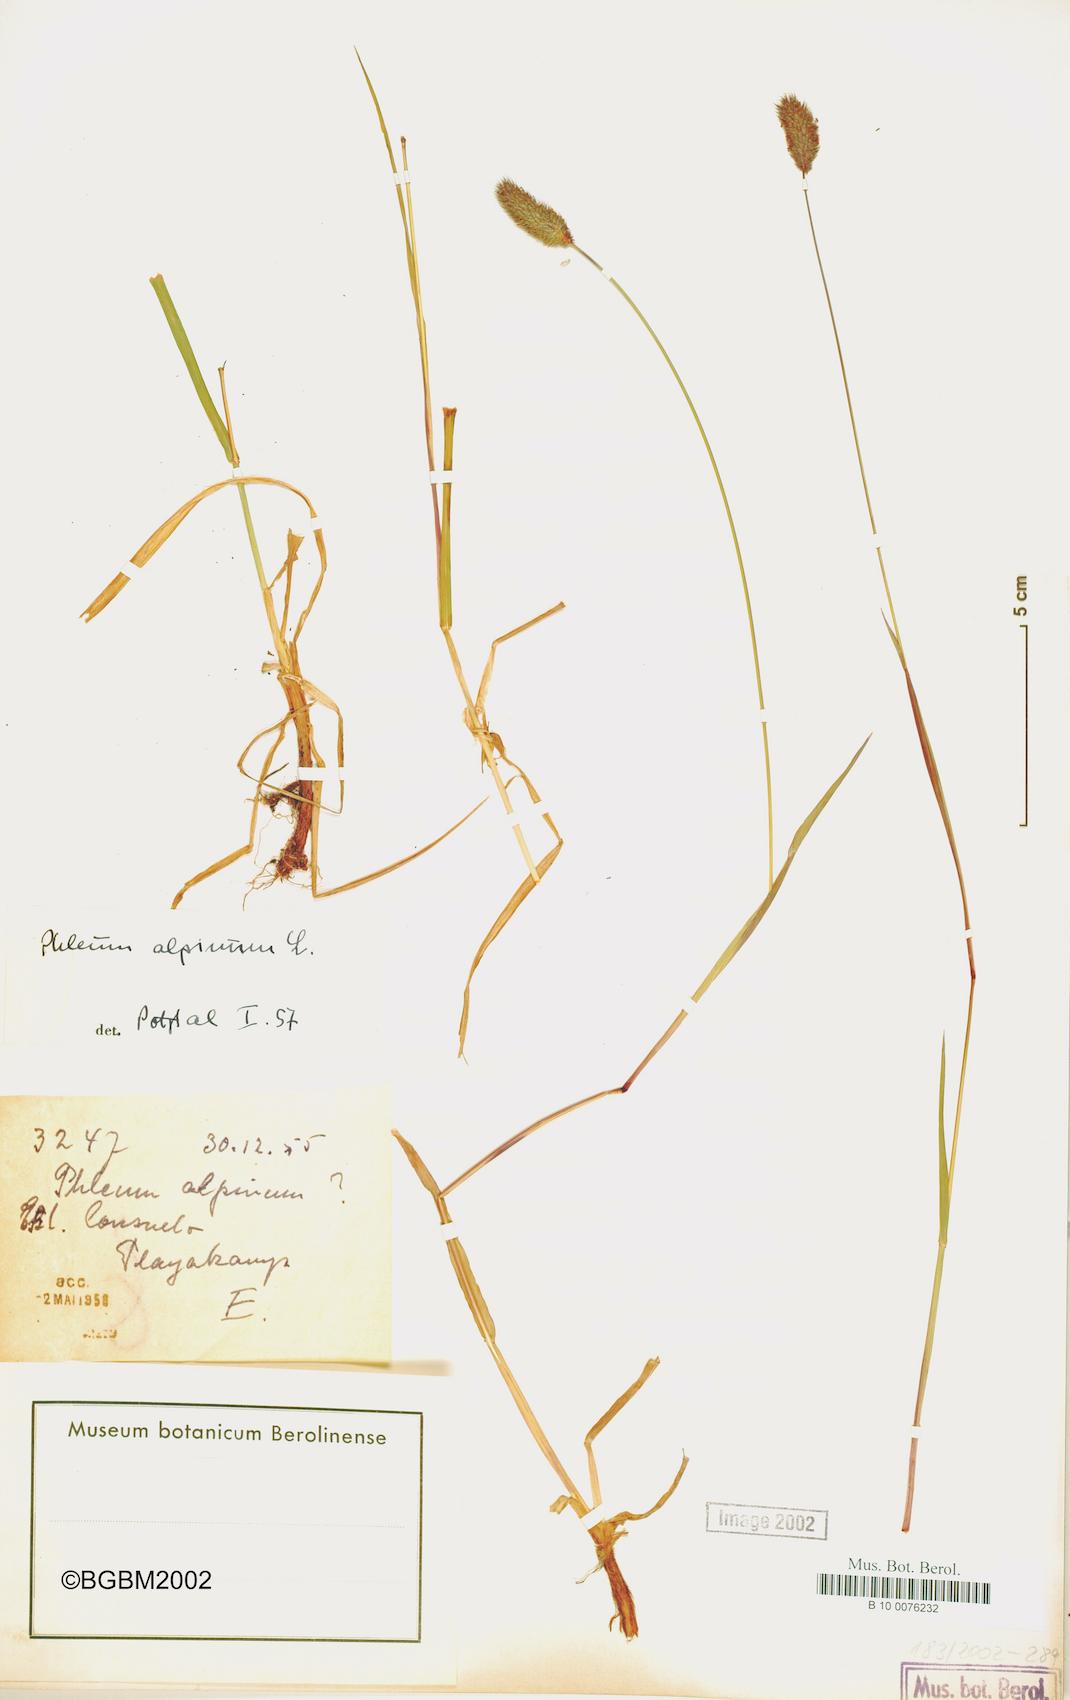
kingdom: Plantae
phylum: Tracheophyta
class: Liliopsida
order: Poales
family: Poaceae
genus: Phleum
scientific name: Phleum alpinum
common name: Alpine cat's-tail
